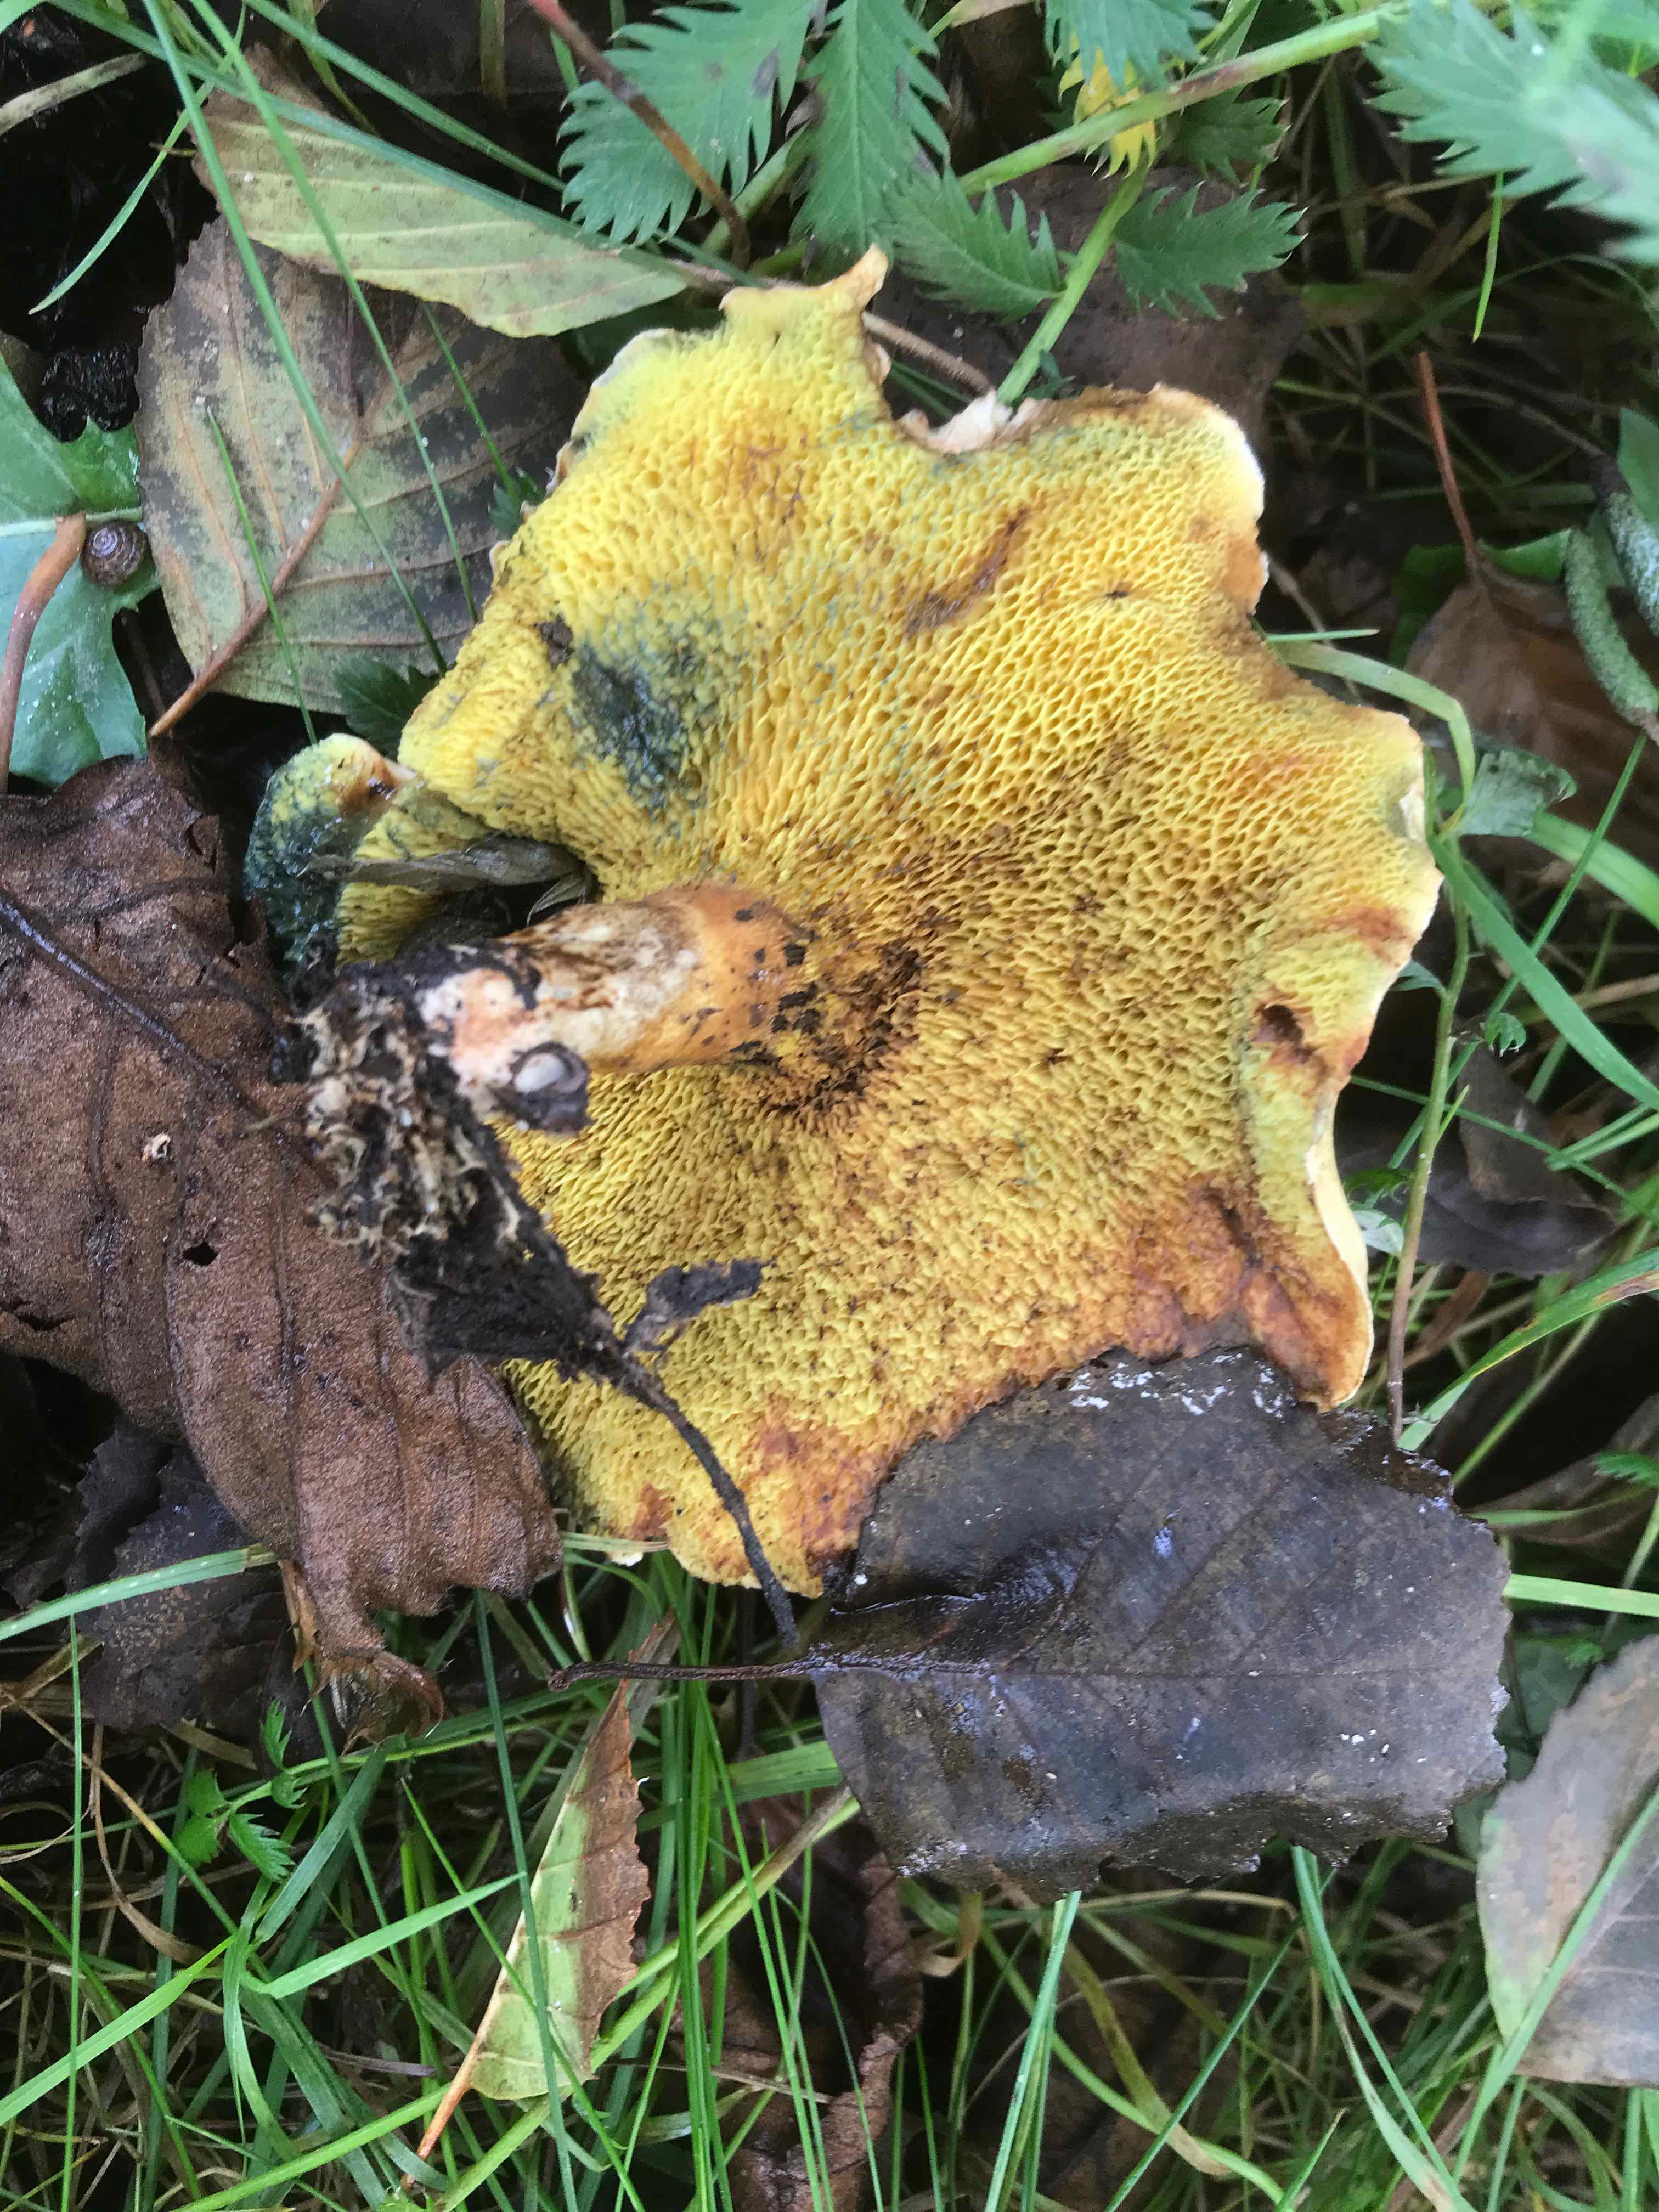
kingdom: Fungi
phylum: Basidiomycota
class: Agaricomycetes
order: Boletales
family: Paxillaceae
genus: Gyrodon
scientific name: Gyrodon lividus
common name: ellerørhat
